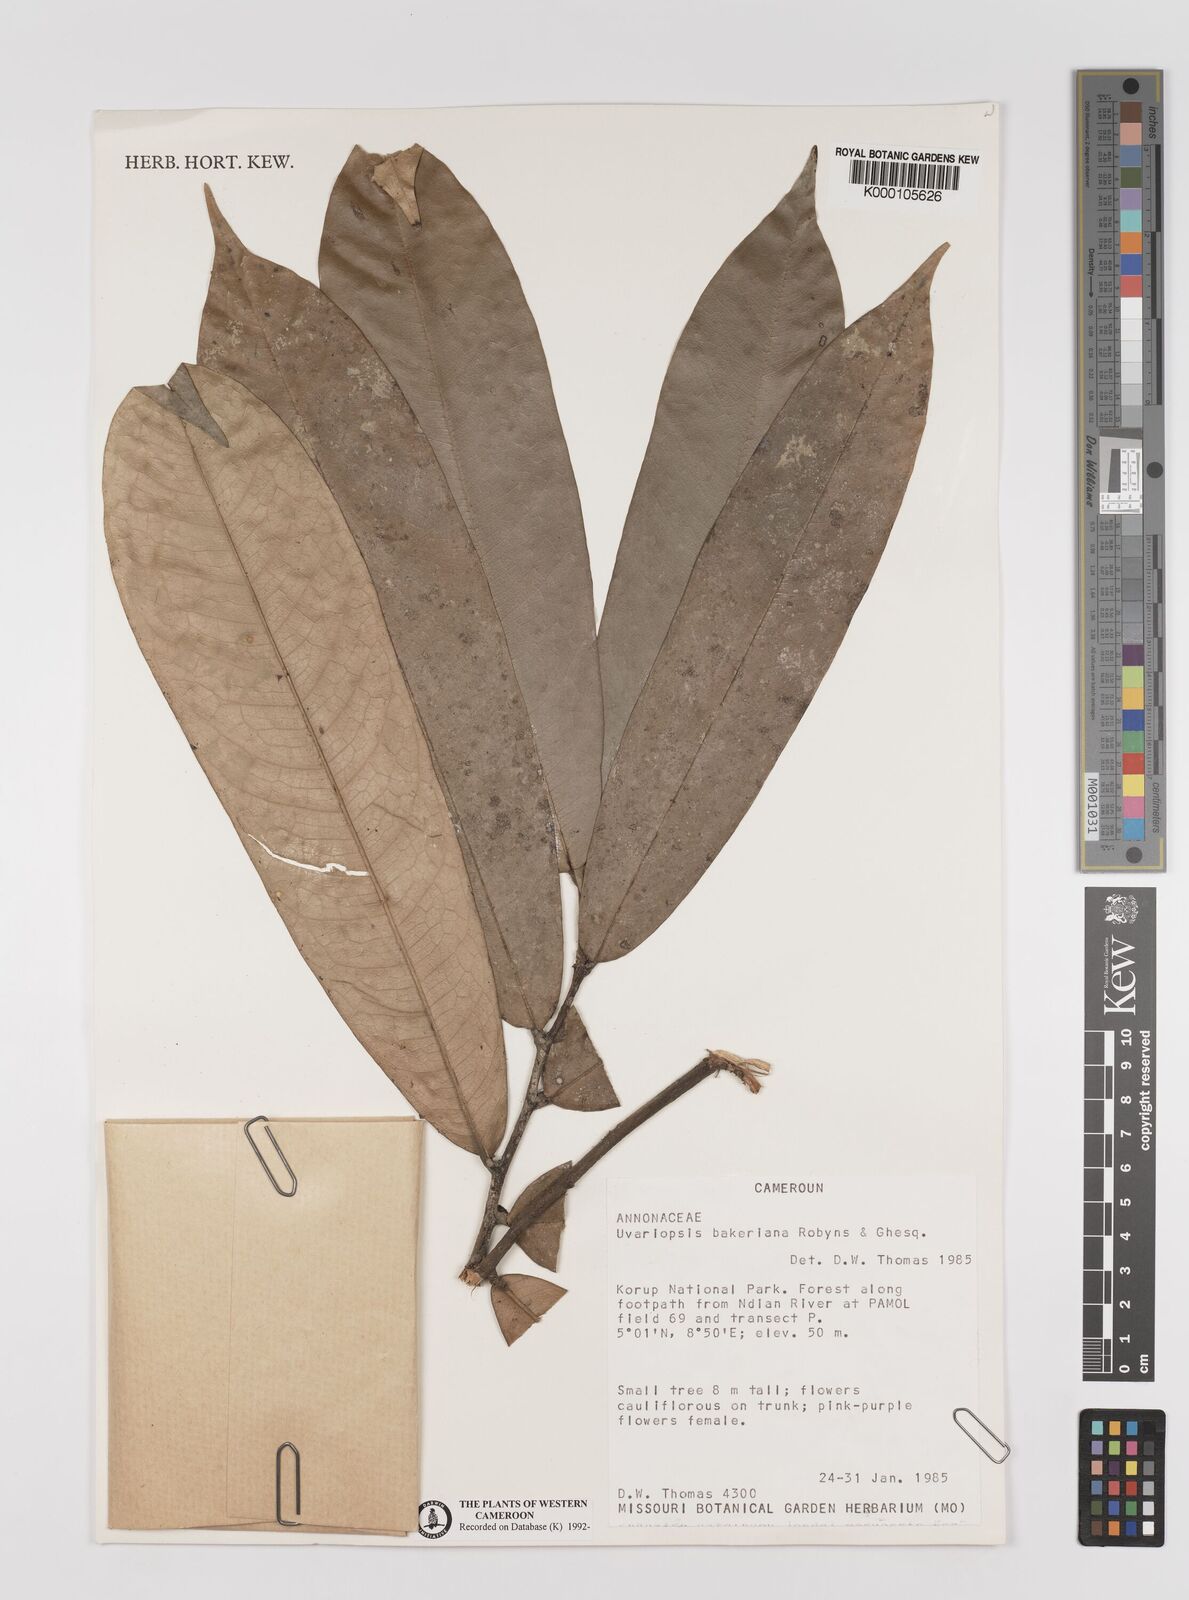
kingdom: Plantae
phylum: Tracheophyta
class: Magnoliopsida
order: Magnoliales
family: Annonaceae
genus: Uvariopsis
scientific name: Uvariopsis bakeriana
